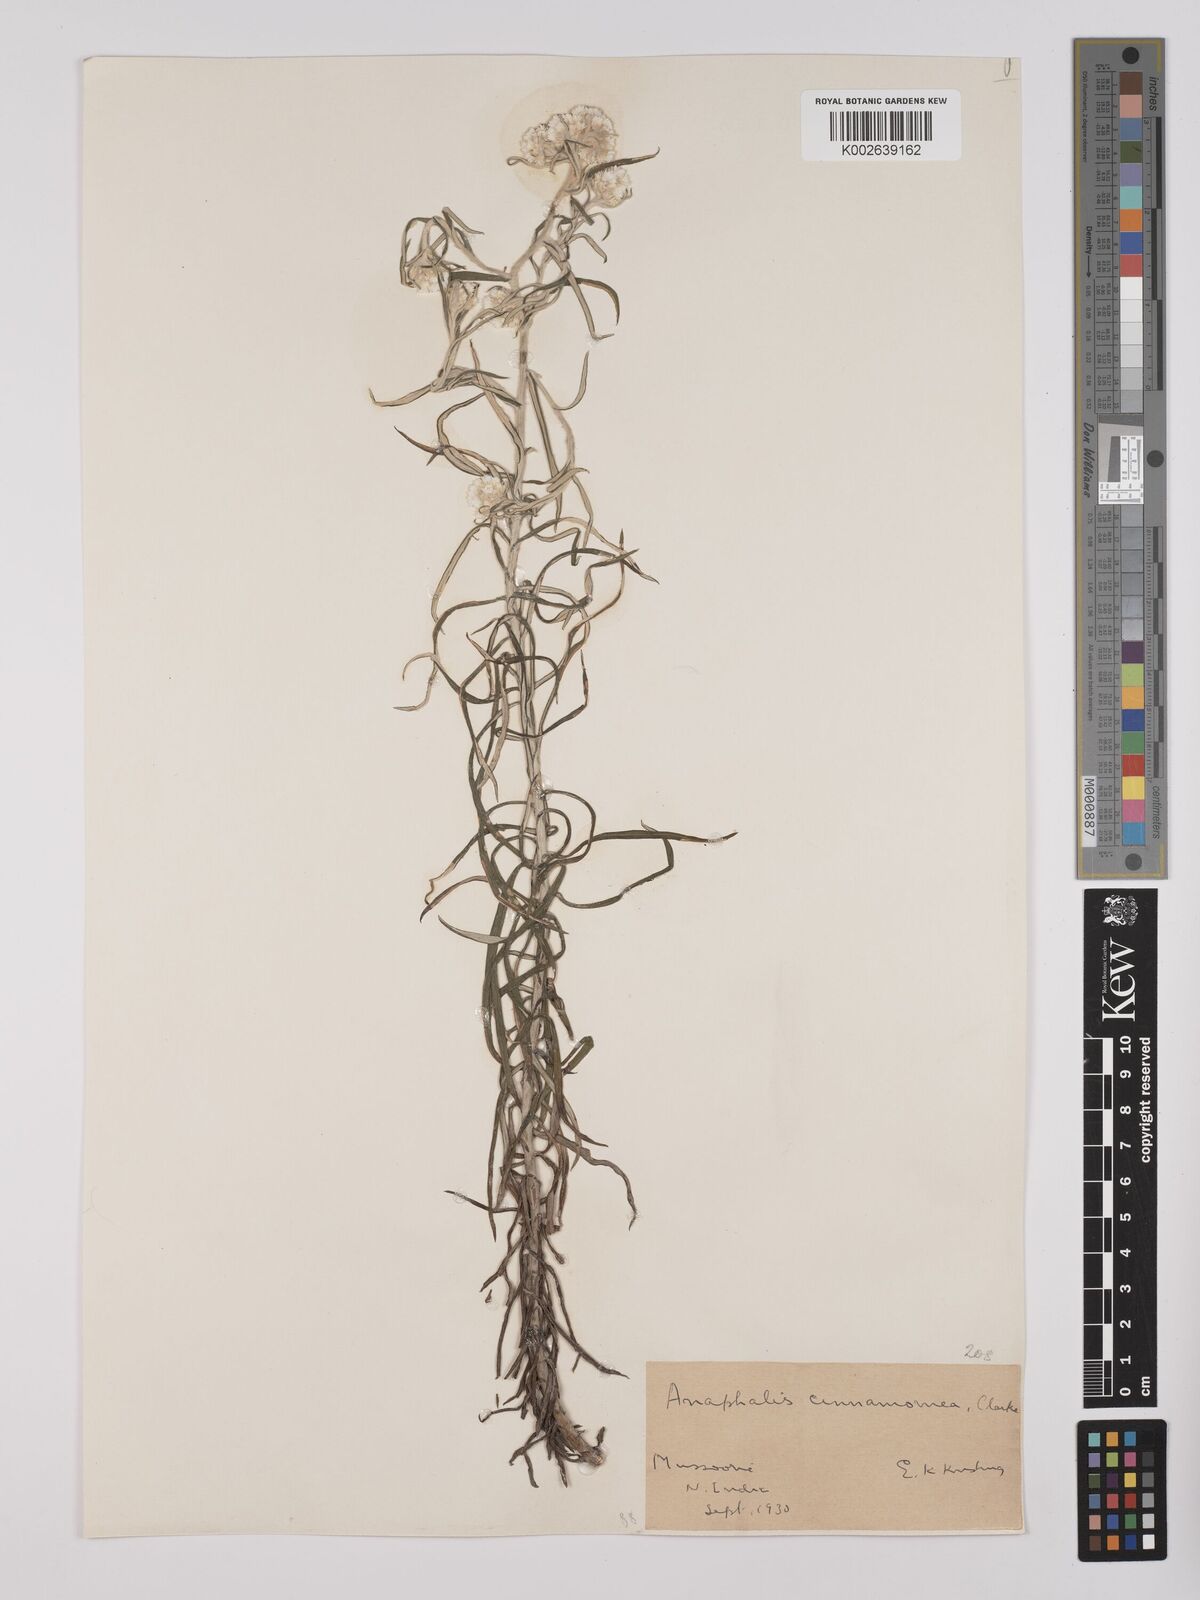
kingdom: Plantae
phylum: Tracheophyta
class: Magnoliopsida
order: Asterales
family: Asteraceae
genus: Anaphalis
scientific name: Anaphalis contorta
